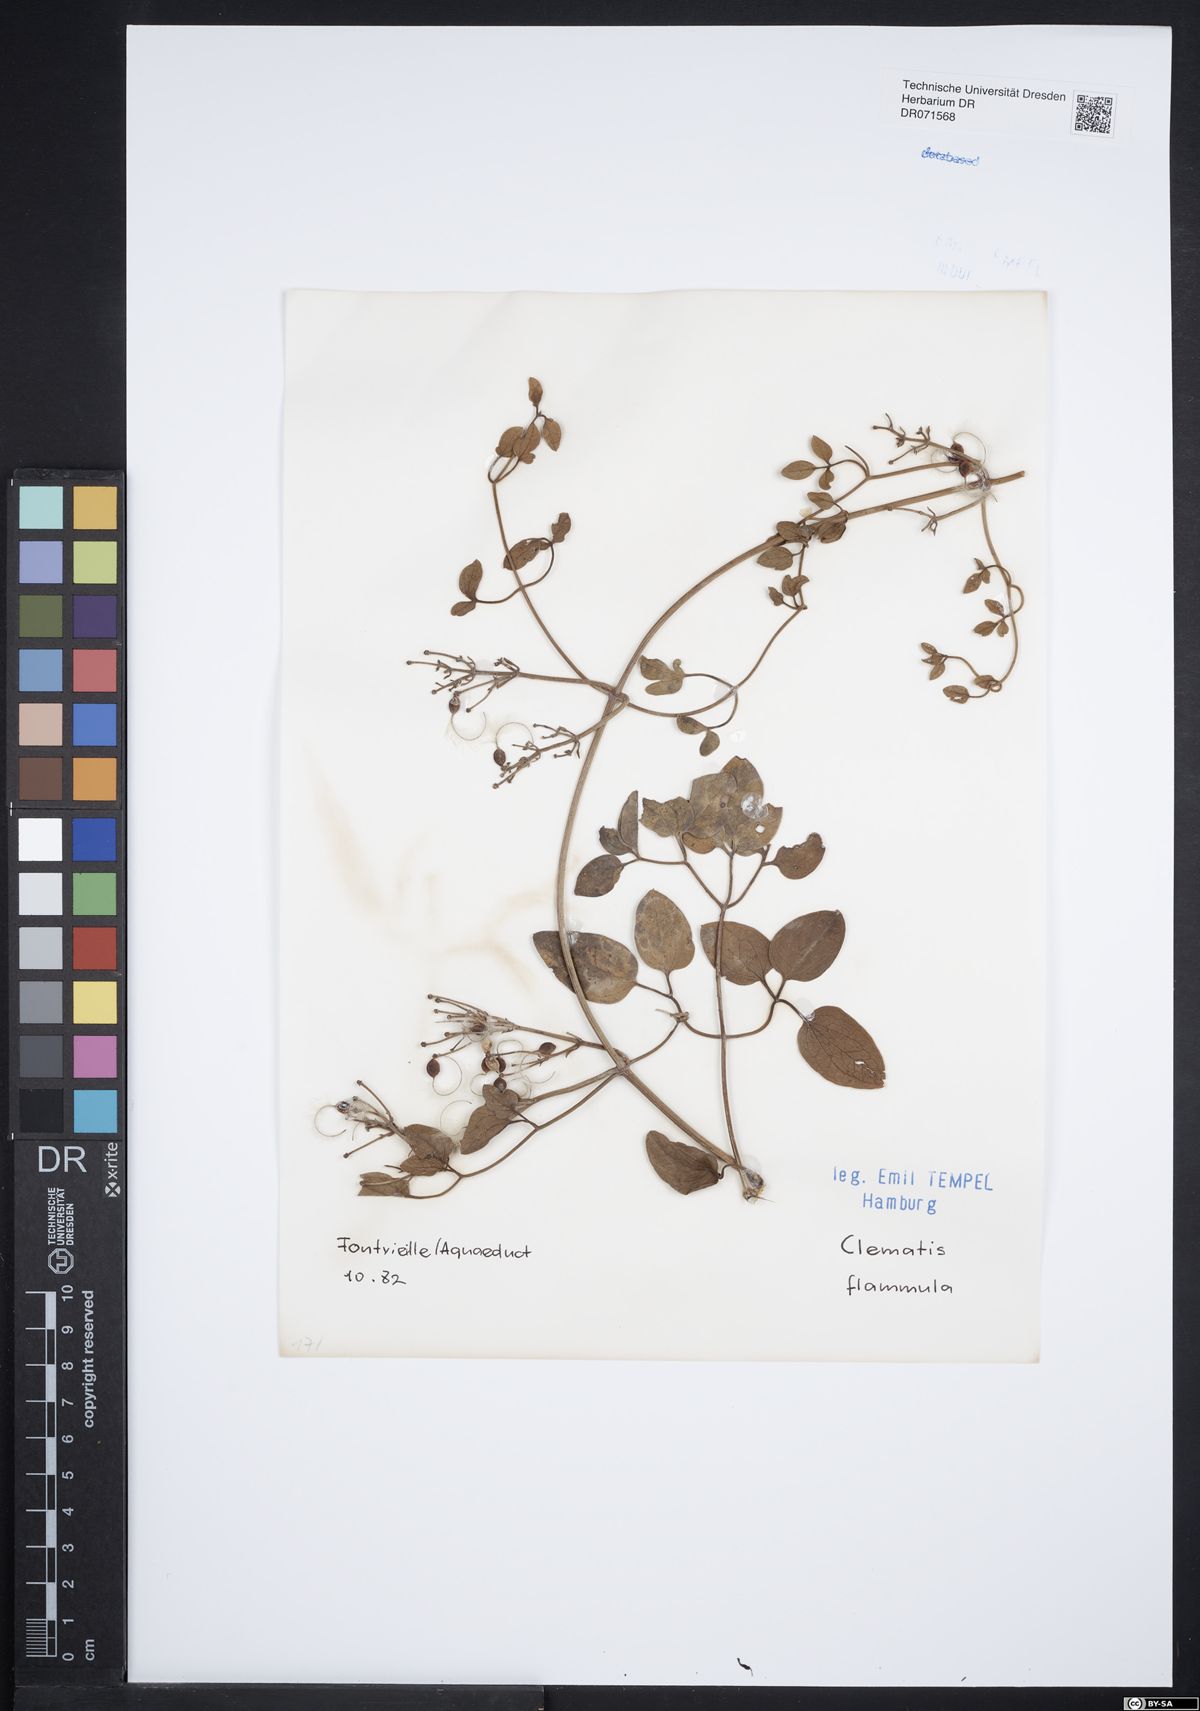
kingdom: Plantae
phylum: Tracheophyta
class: Magnoliopsida
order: Ranunculales
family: Ranunculaceae
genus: Clematis
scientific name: Clematis flammula
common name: Virgin's-bower
